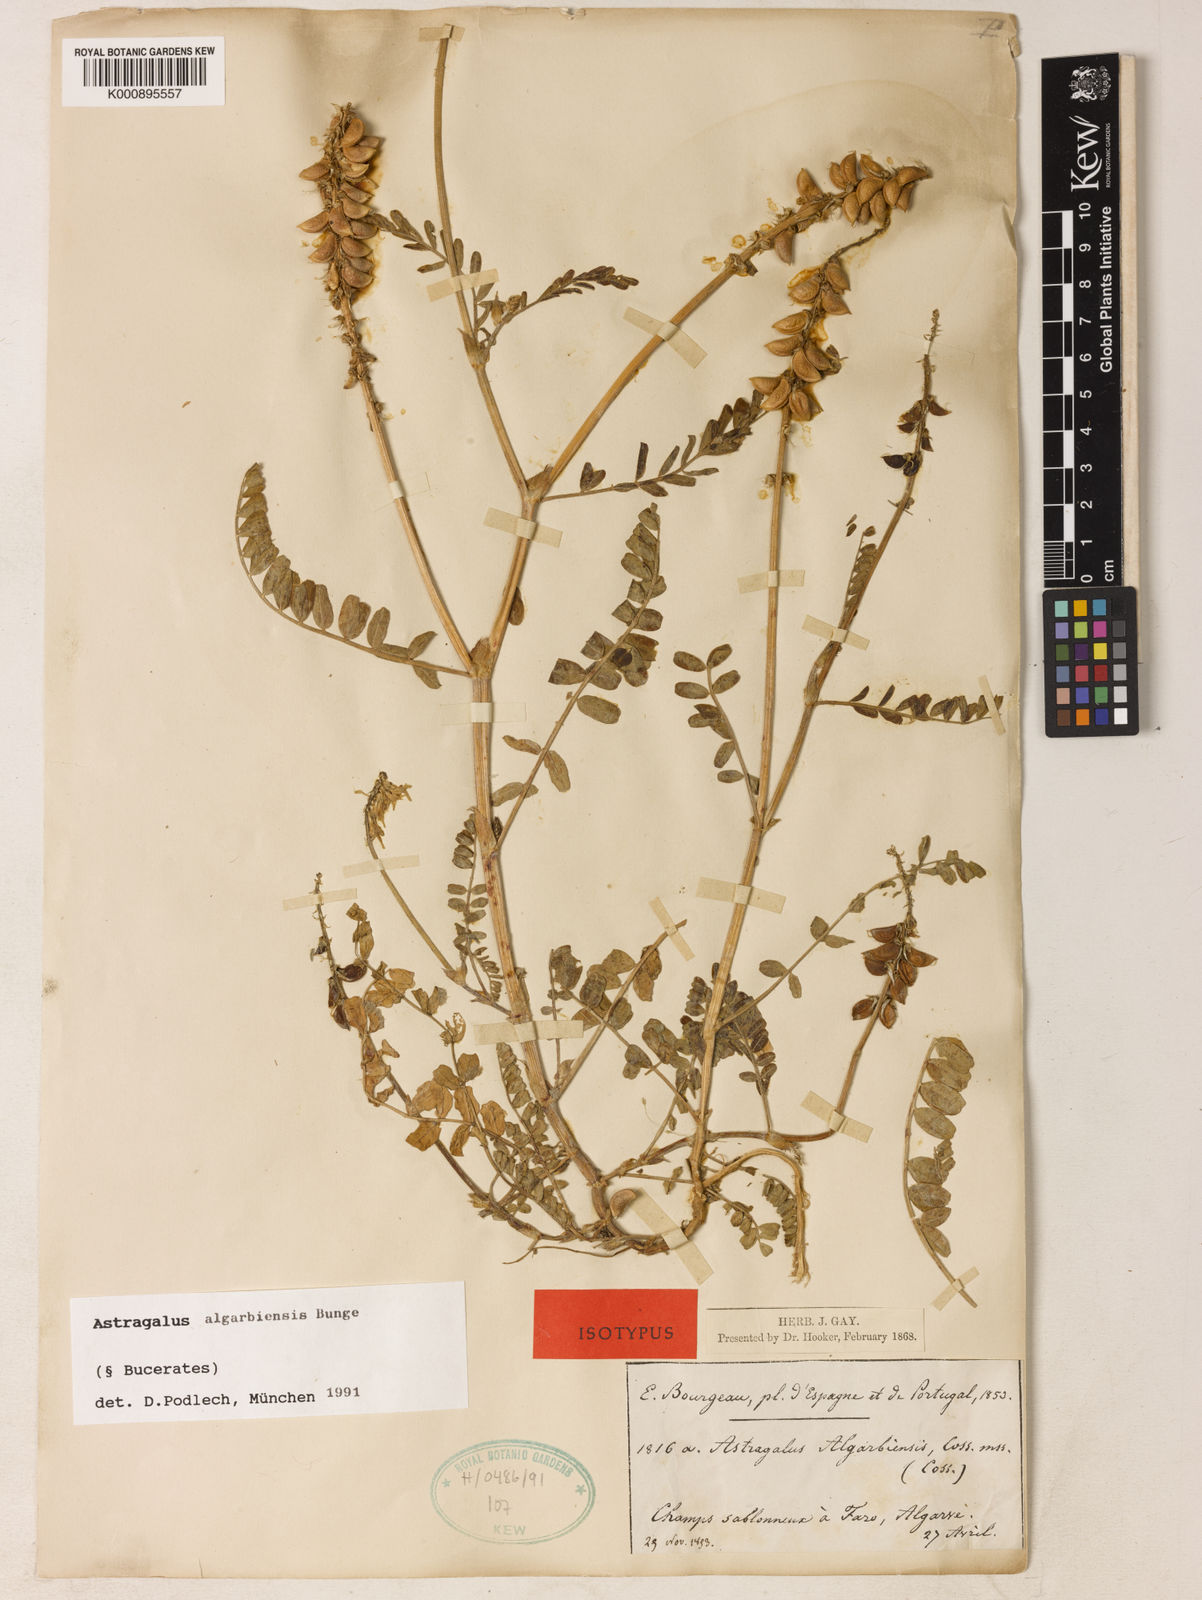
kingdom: Plantae
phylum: Tracheophyta
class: Magnoliopsida
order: Fabales
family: Fabaceae
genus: Astragalus
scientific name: Astragalus
